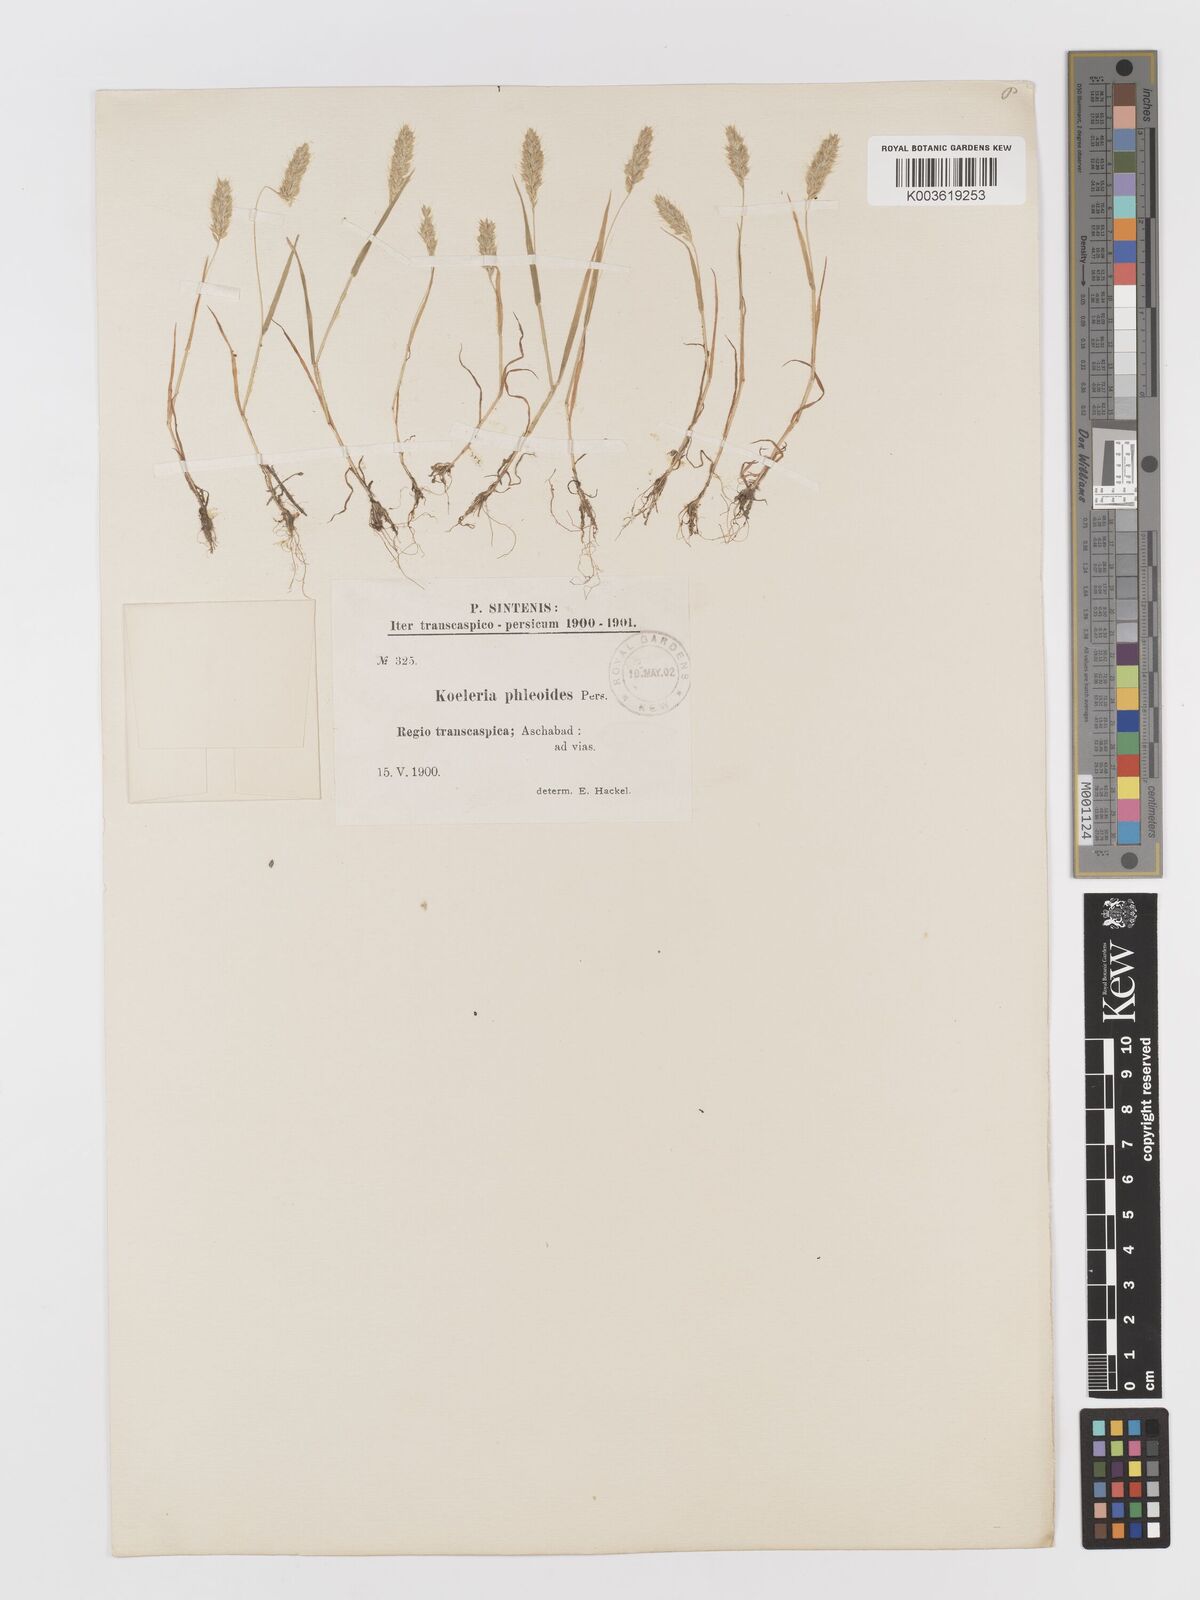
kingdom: Plantae
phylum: Tracheophyta
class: Liliopsida
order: Poales
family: Poaceae
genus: Rostraria
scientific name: Rostraria cristata
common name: Mediterranean hair-grass
